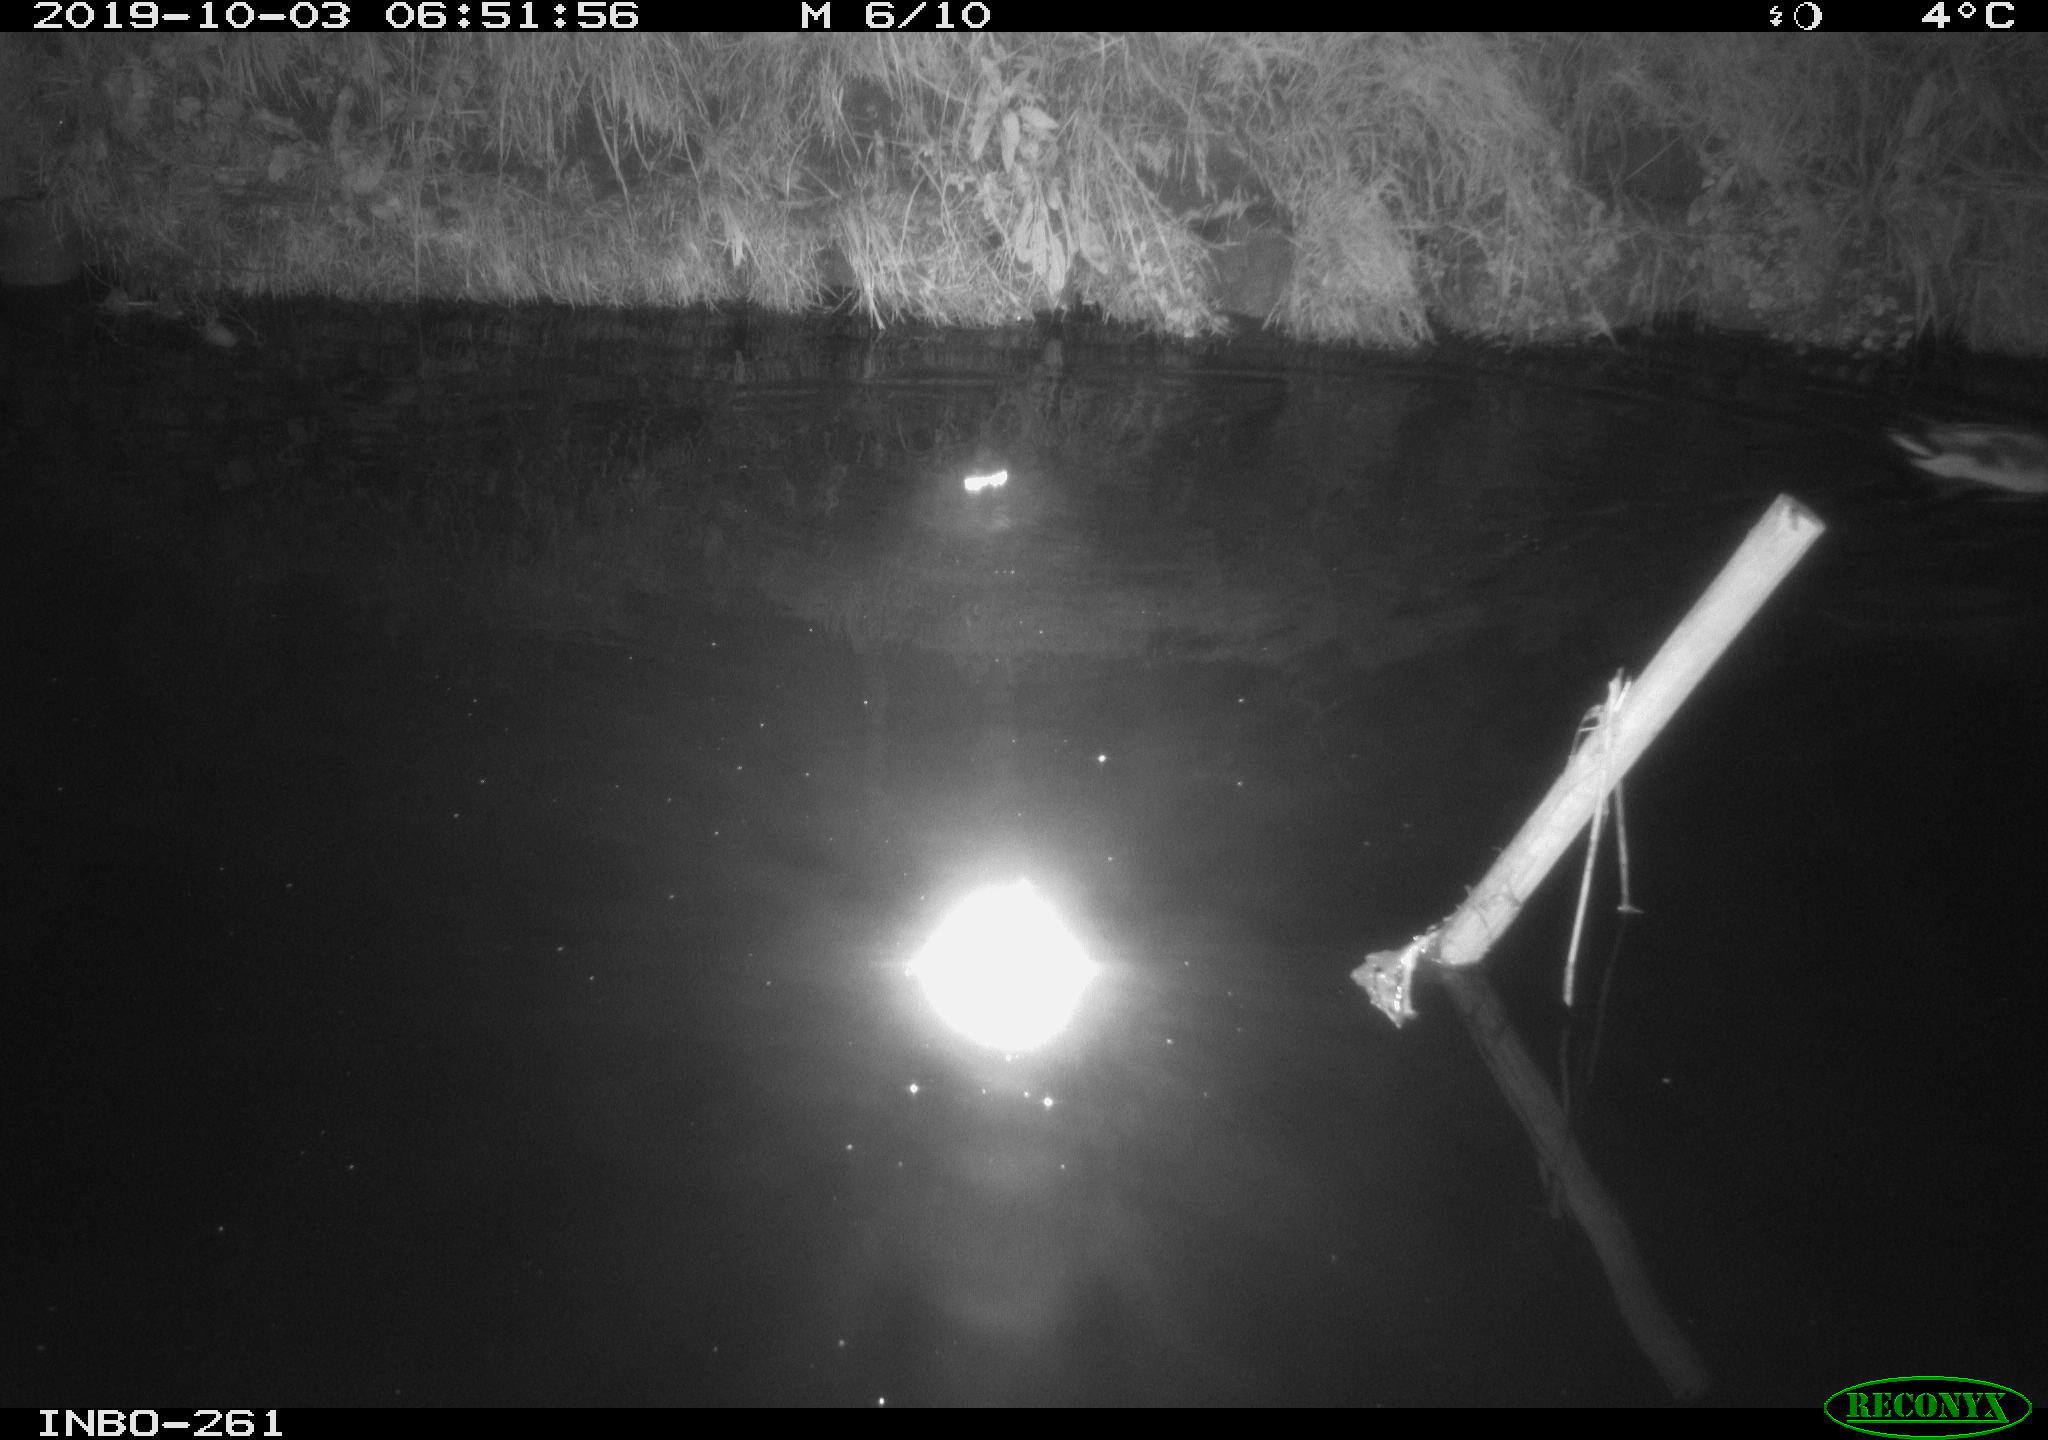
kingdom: Animalia
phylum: Chordata
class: Aves
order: Anseriformes
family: Anatidae
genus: Anas
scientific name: Anas platyrhynchos
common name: Mallard
